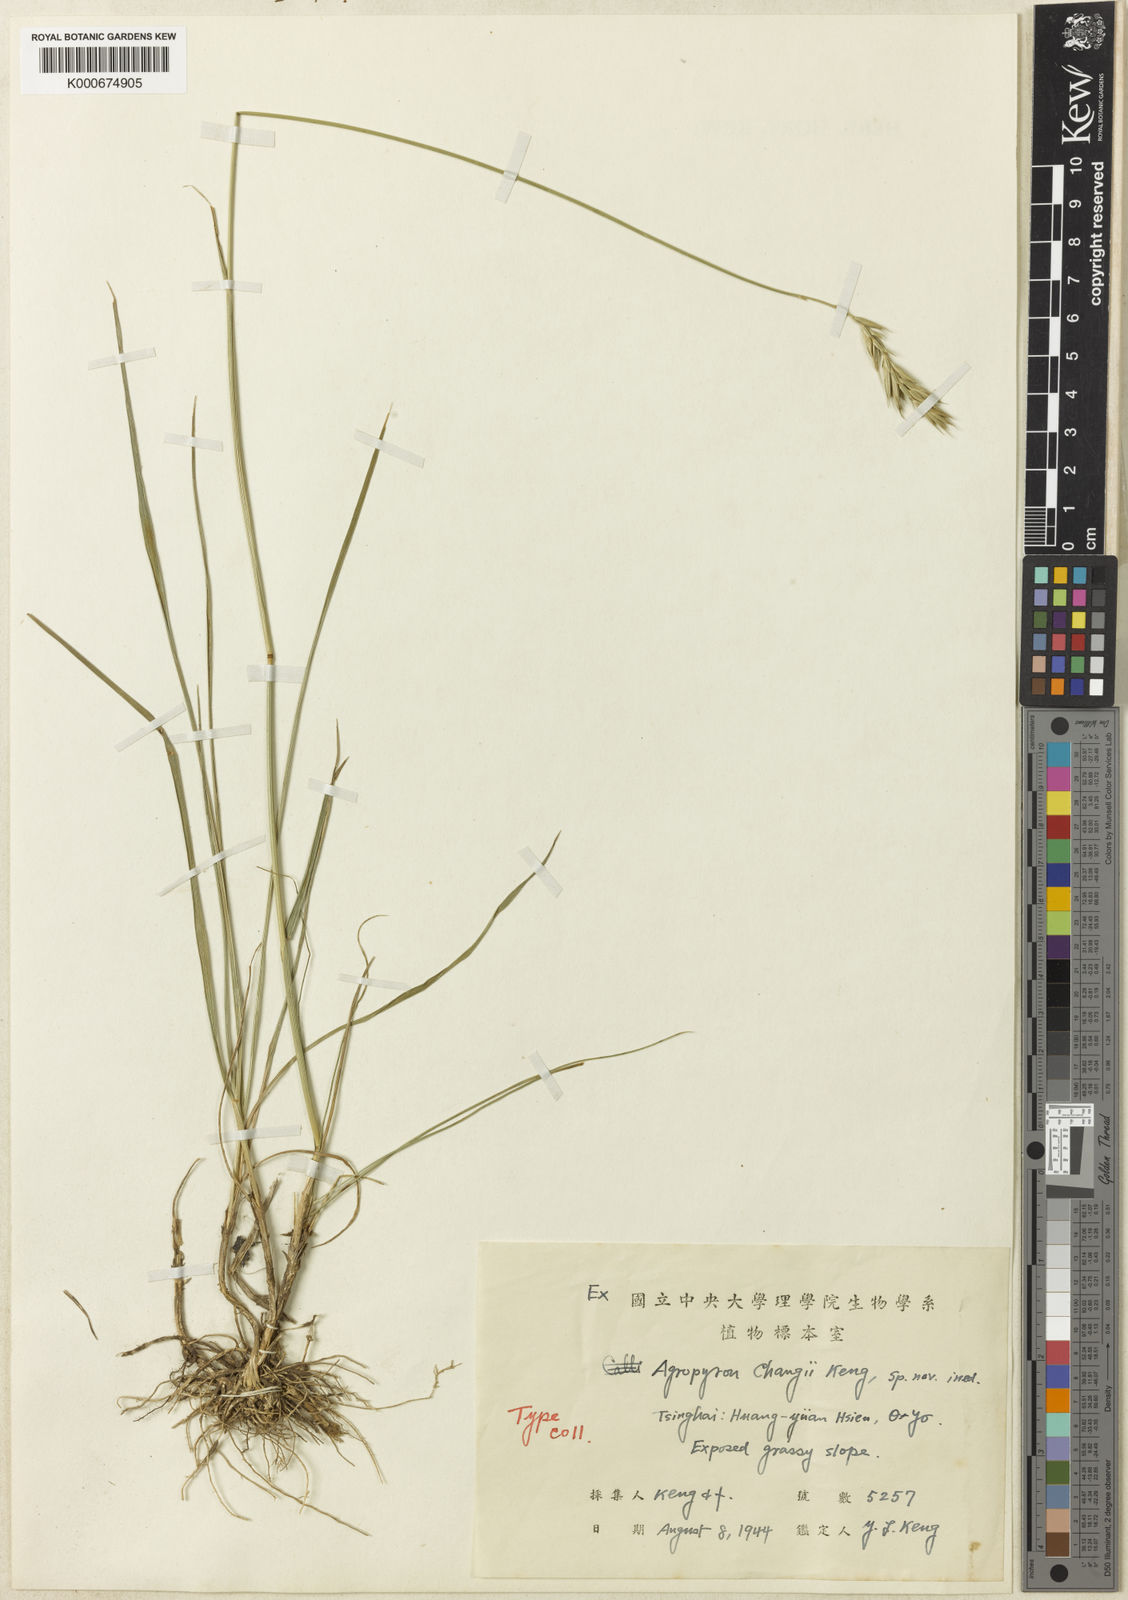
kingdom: Plantae
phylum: Tracheophyta
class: Liliopsida
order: Poales
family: Poaceae
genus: Elymus
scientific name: Elymus
